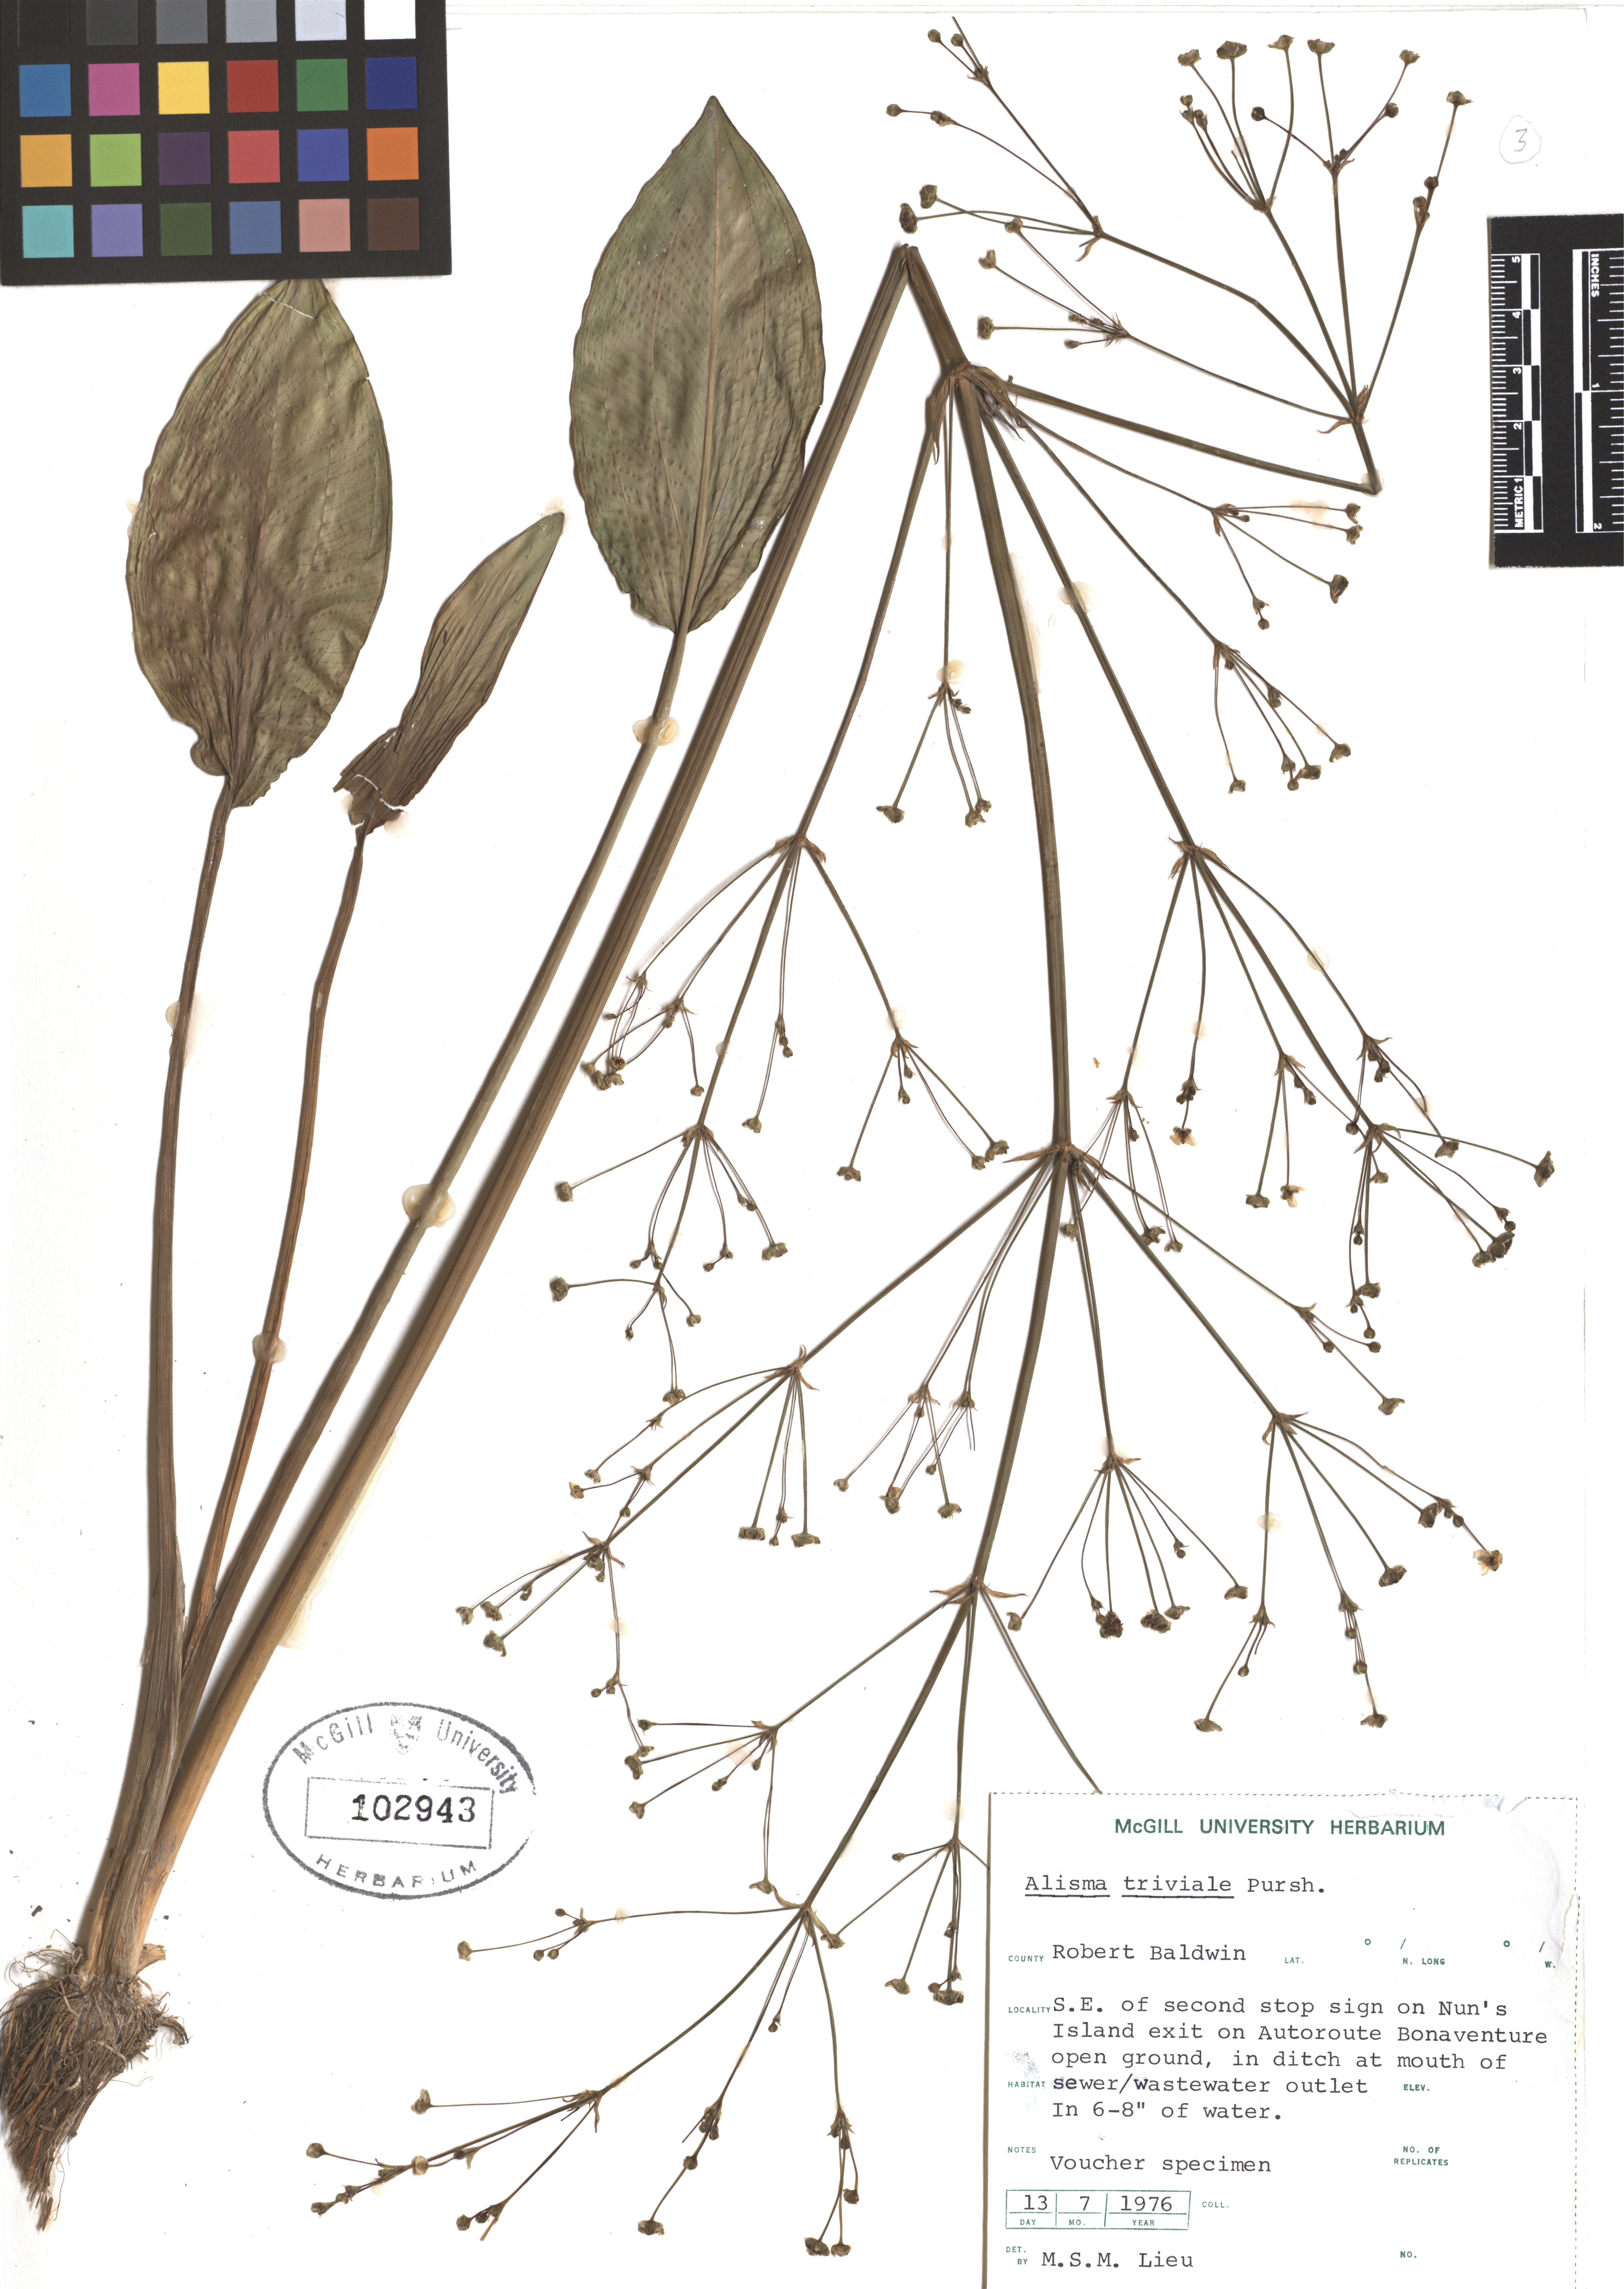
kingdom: Plantae
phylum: Tracheophyta
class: Liliopsida
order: Alismatales
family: Alismataceae
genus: Alisma
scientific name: Alisma triviale
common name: Northern water-plantain
